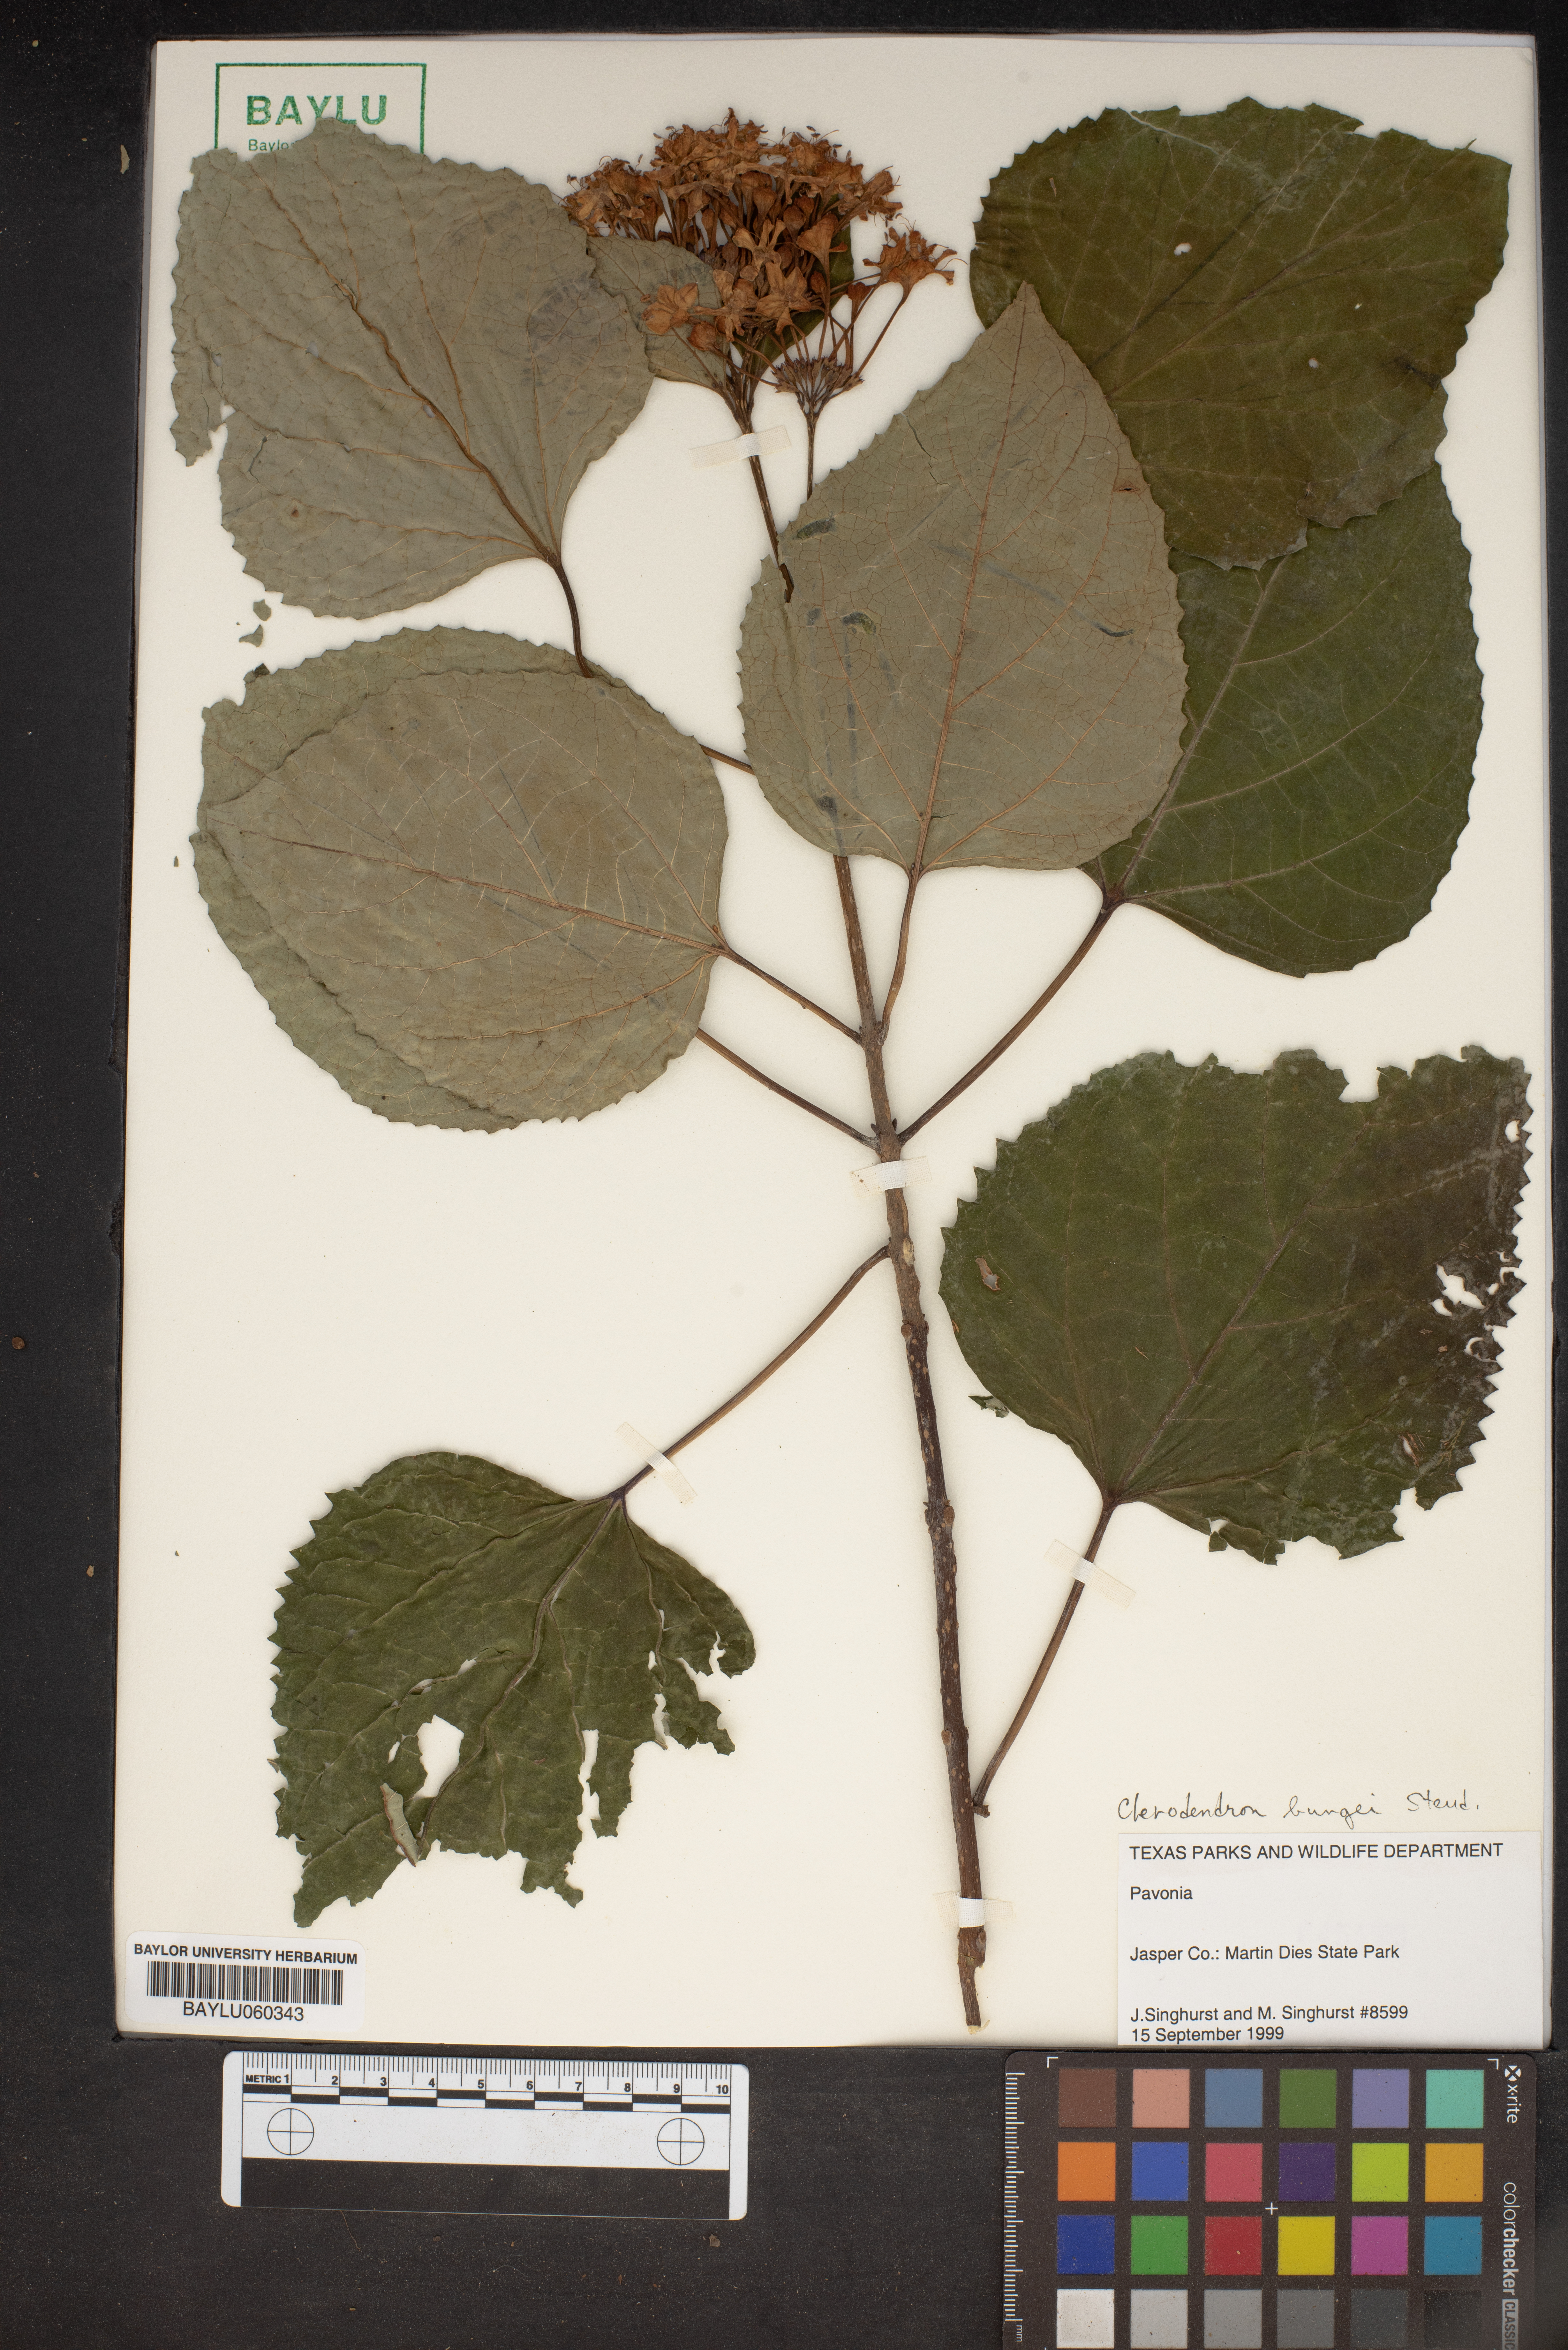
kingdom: Plantae
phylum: Tracheophyta
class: Magnoliopsida
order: Lamiales
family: Lamiaceae
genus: Clerodendrum
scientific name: Clerodendrum bungei
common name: Rose glorybower
